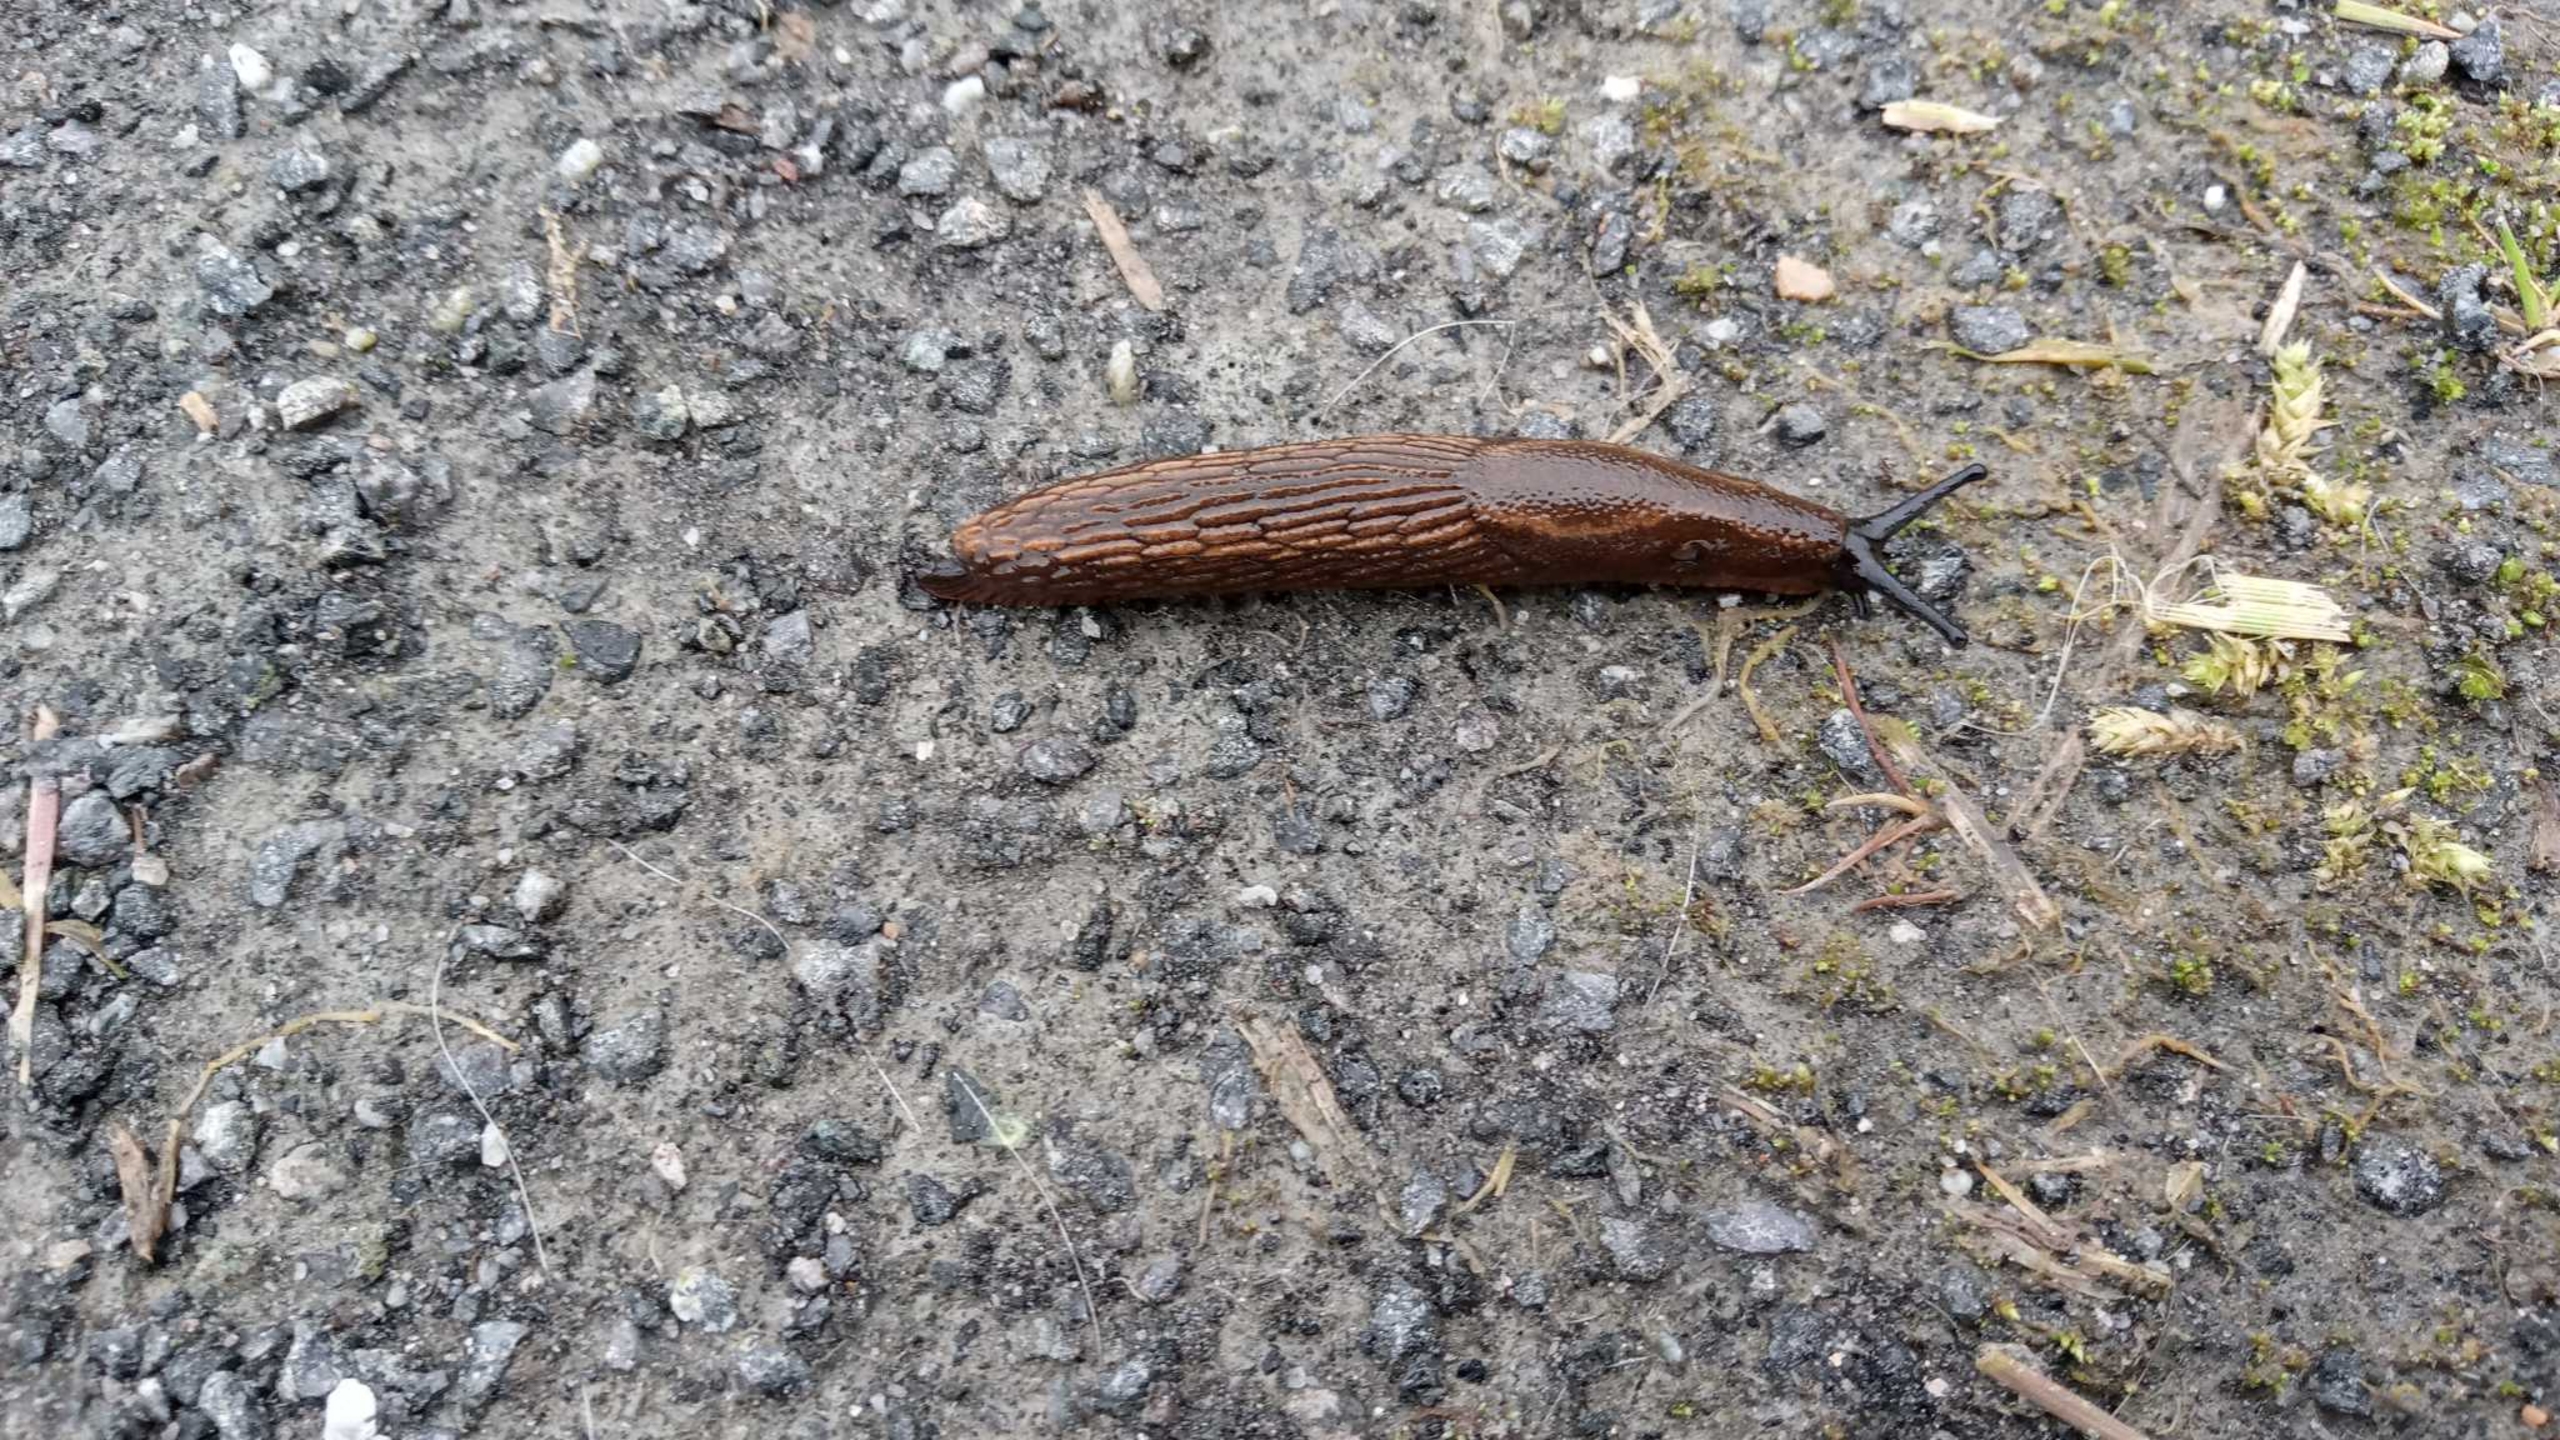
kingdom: Animalia
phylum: Mollusca
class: Gastropoda
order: Stylommatophora
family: Arionidae
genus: Arion
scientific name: Arion vulgaris
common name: Iberisk skovsnegl
